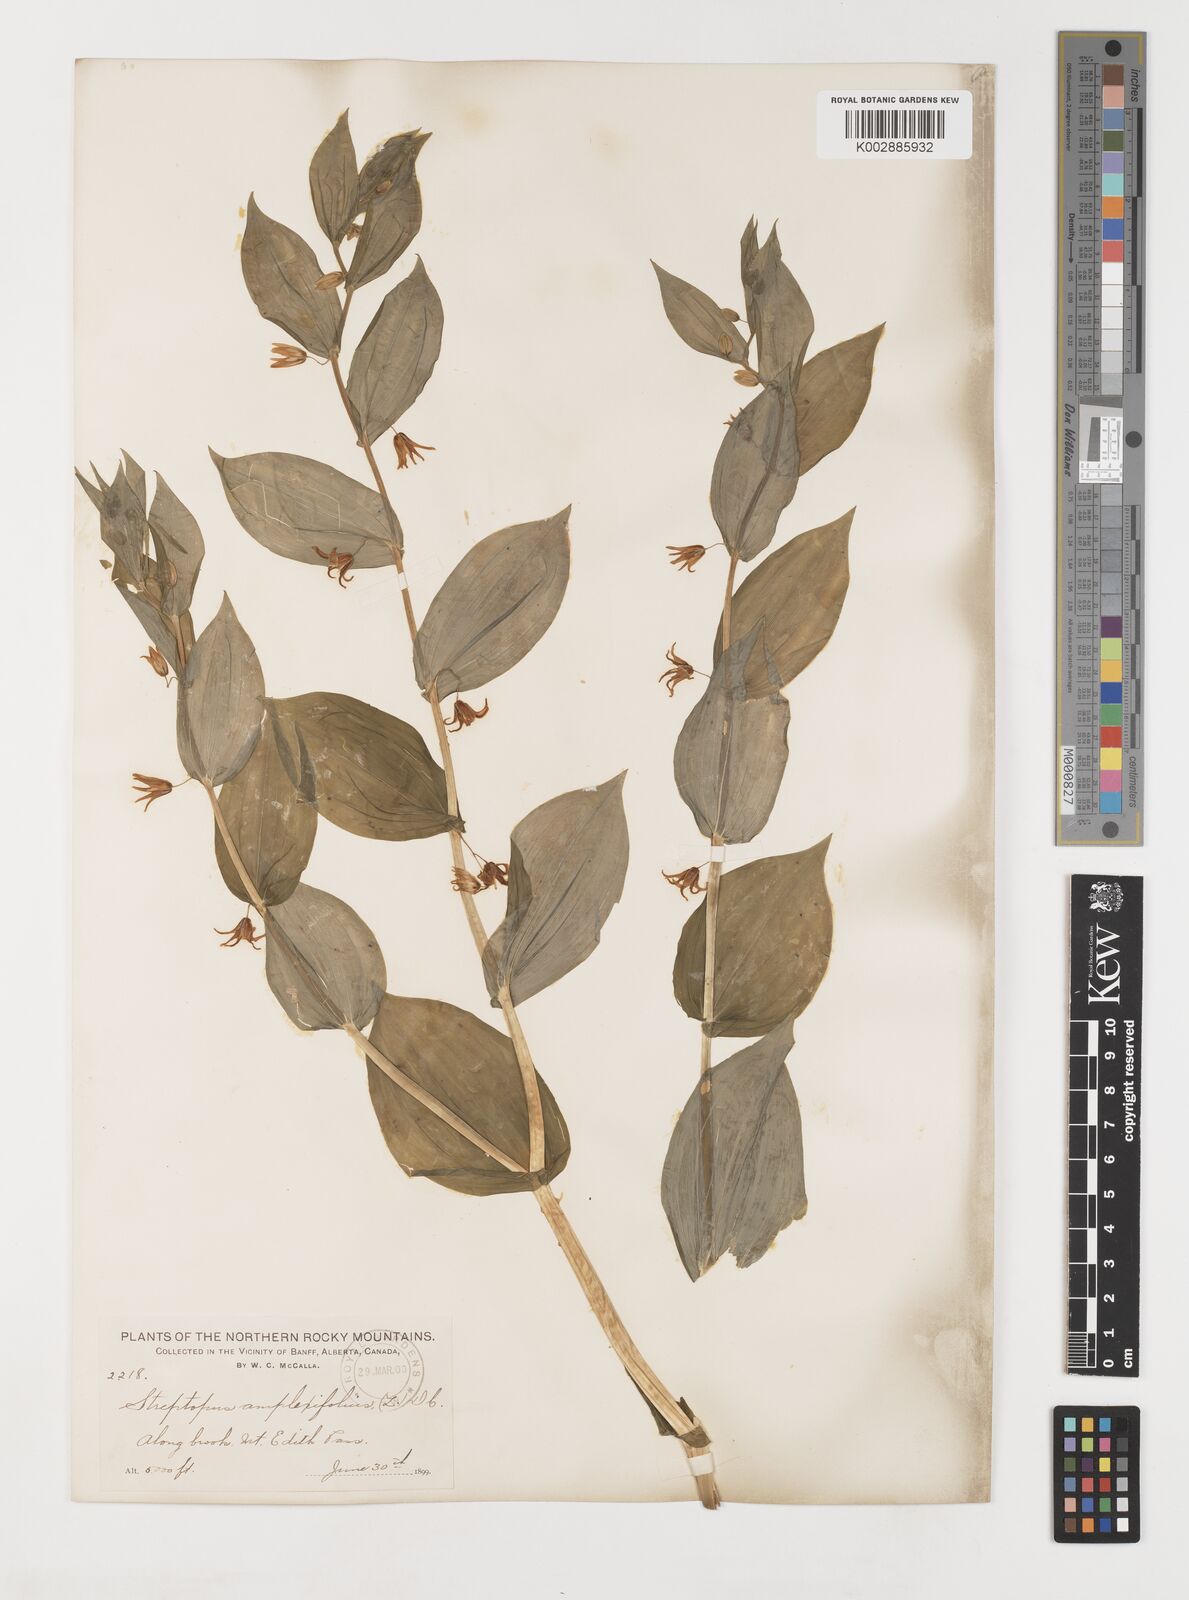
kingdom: Plantae
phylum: Tracheophyta
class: Liliopsida
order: Liliales
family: Liliaceae
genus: Streptopus
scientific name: Streptopus amplexifolius
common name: Clasp twisted stalk
